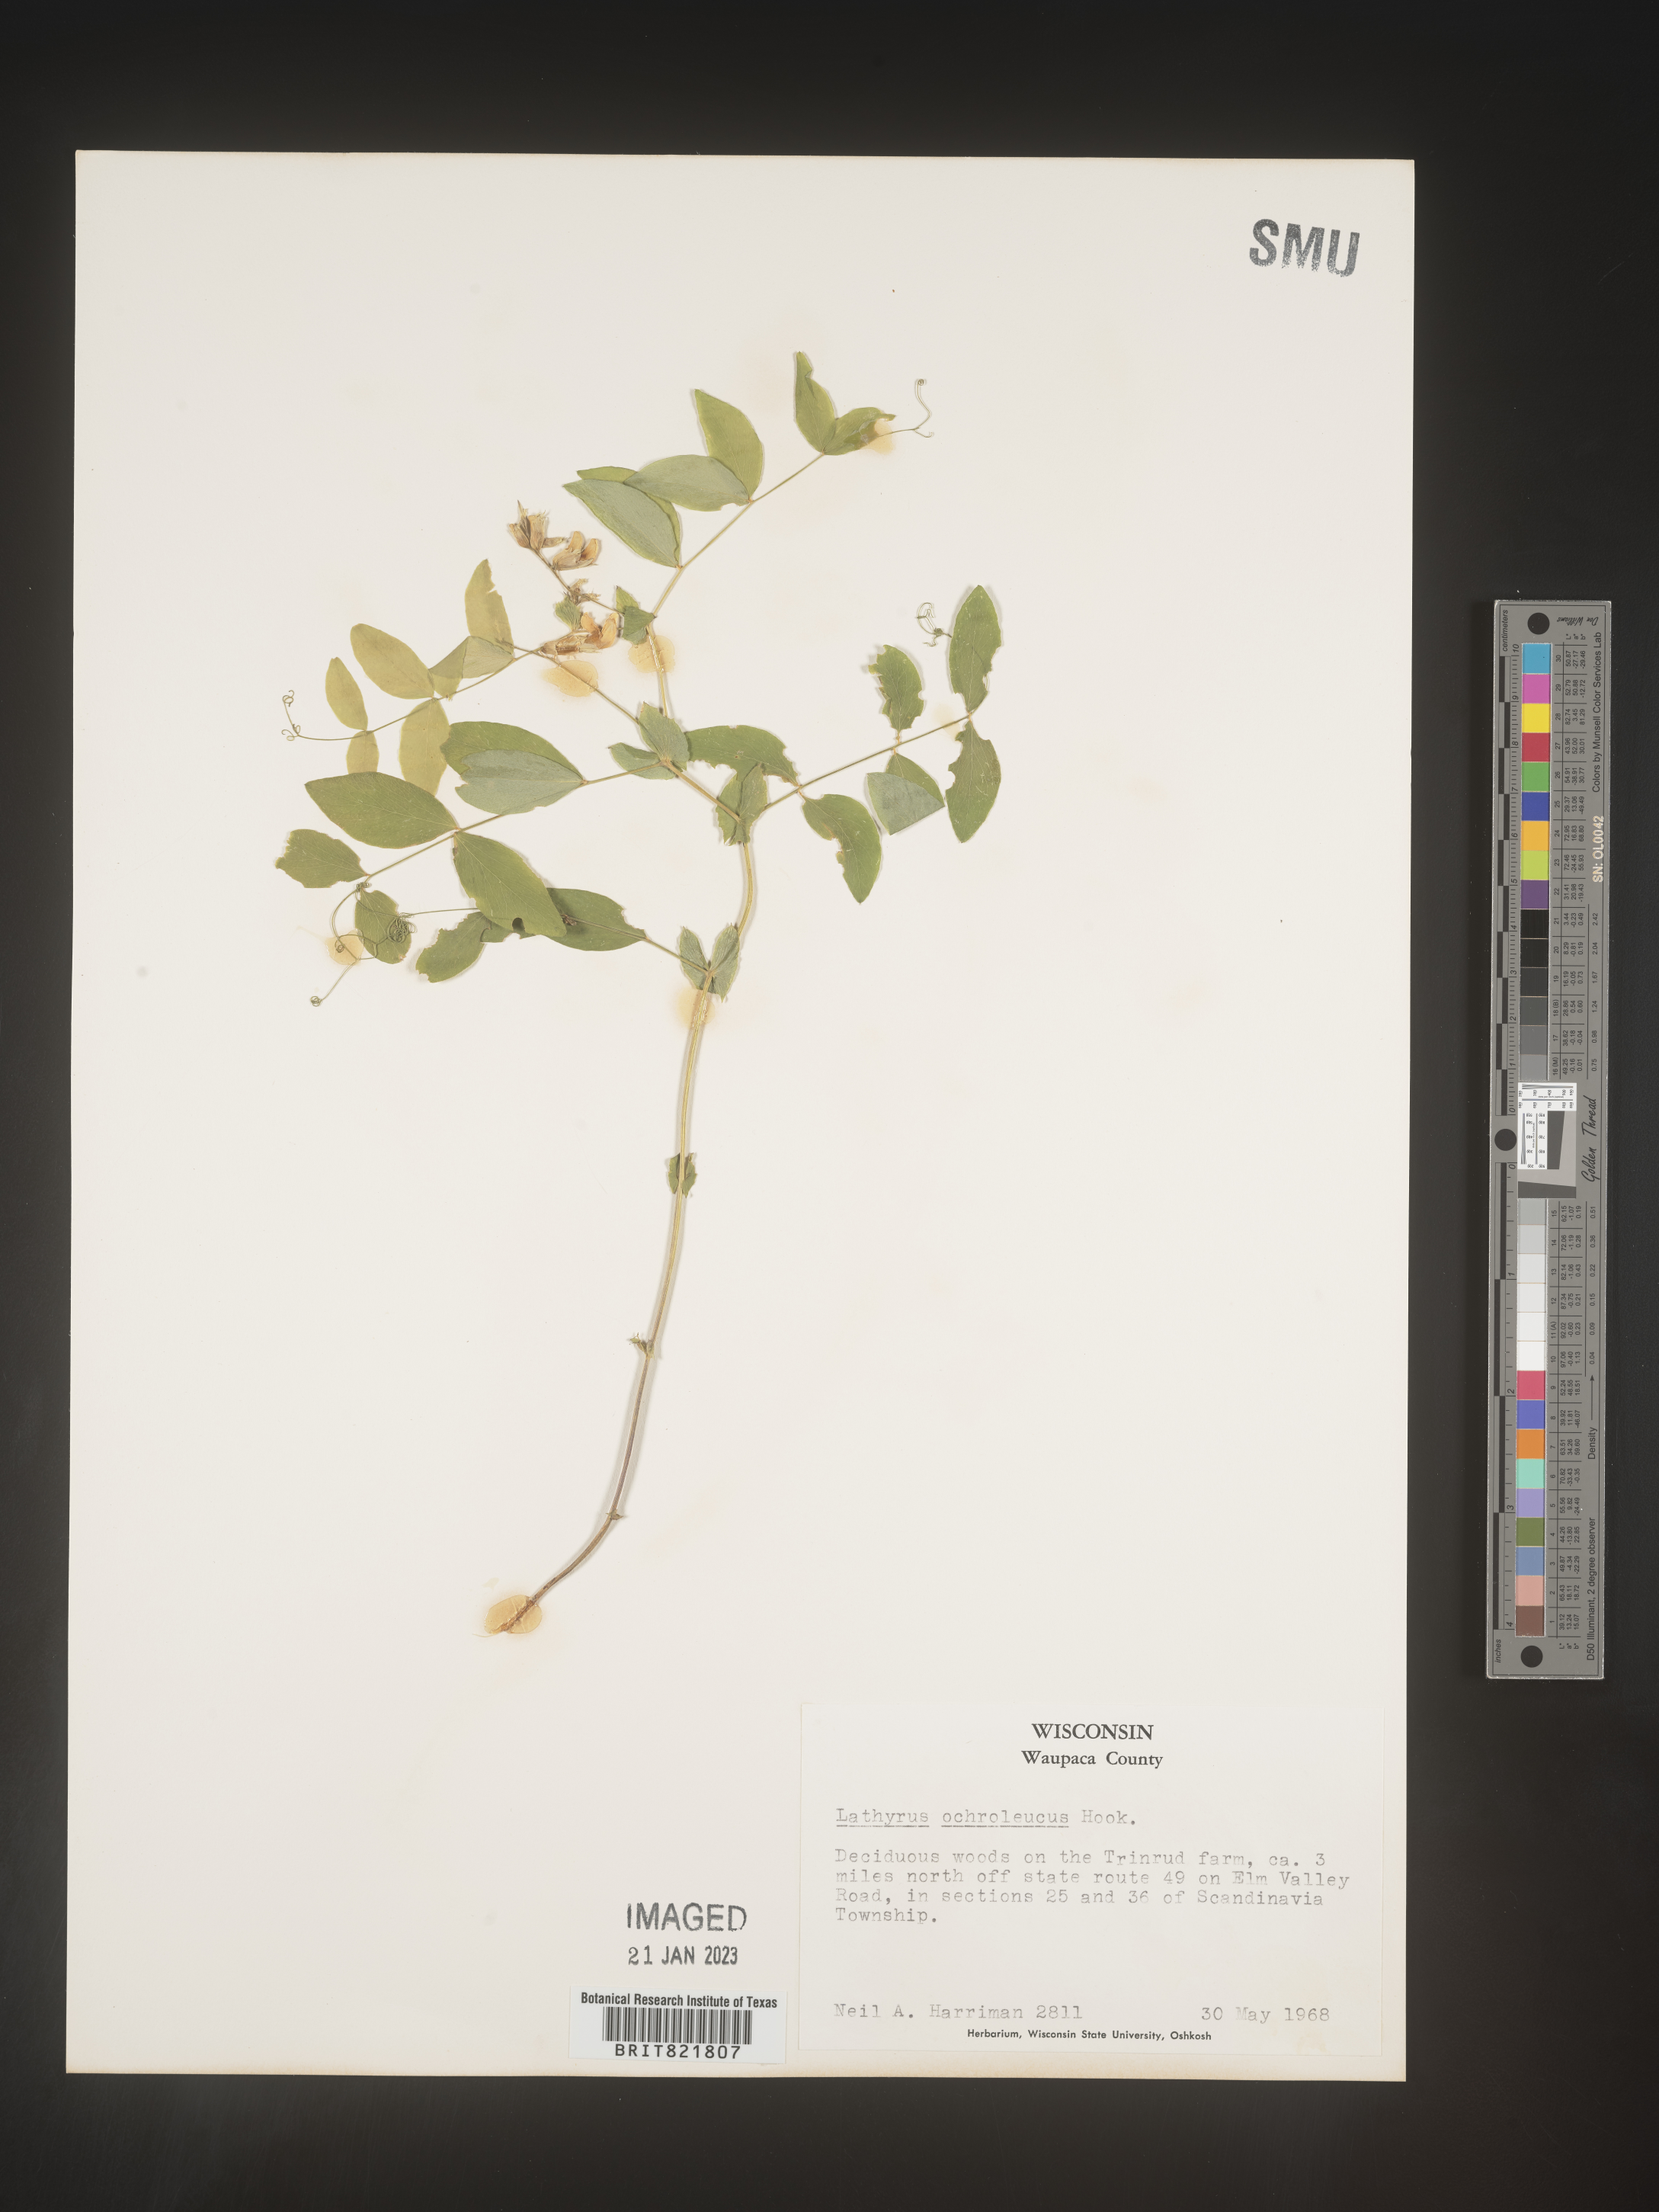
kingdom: Plantae
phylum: Tracheophyta
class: Magnoliopsida
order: Fabales
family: Fabaceae
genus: Lathyrus
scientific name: Lathyrus
